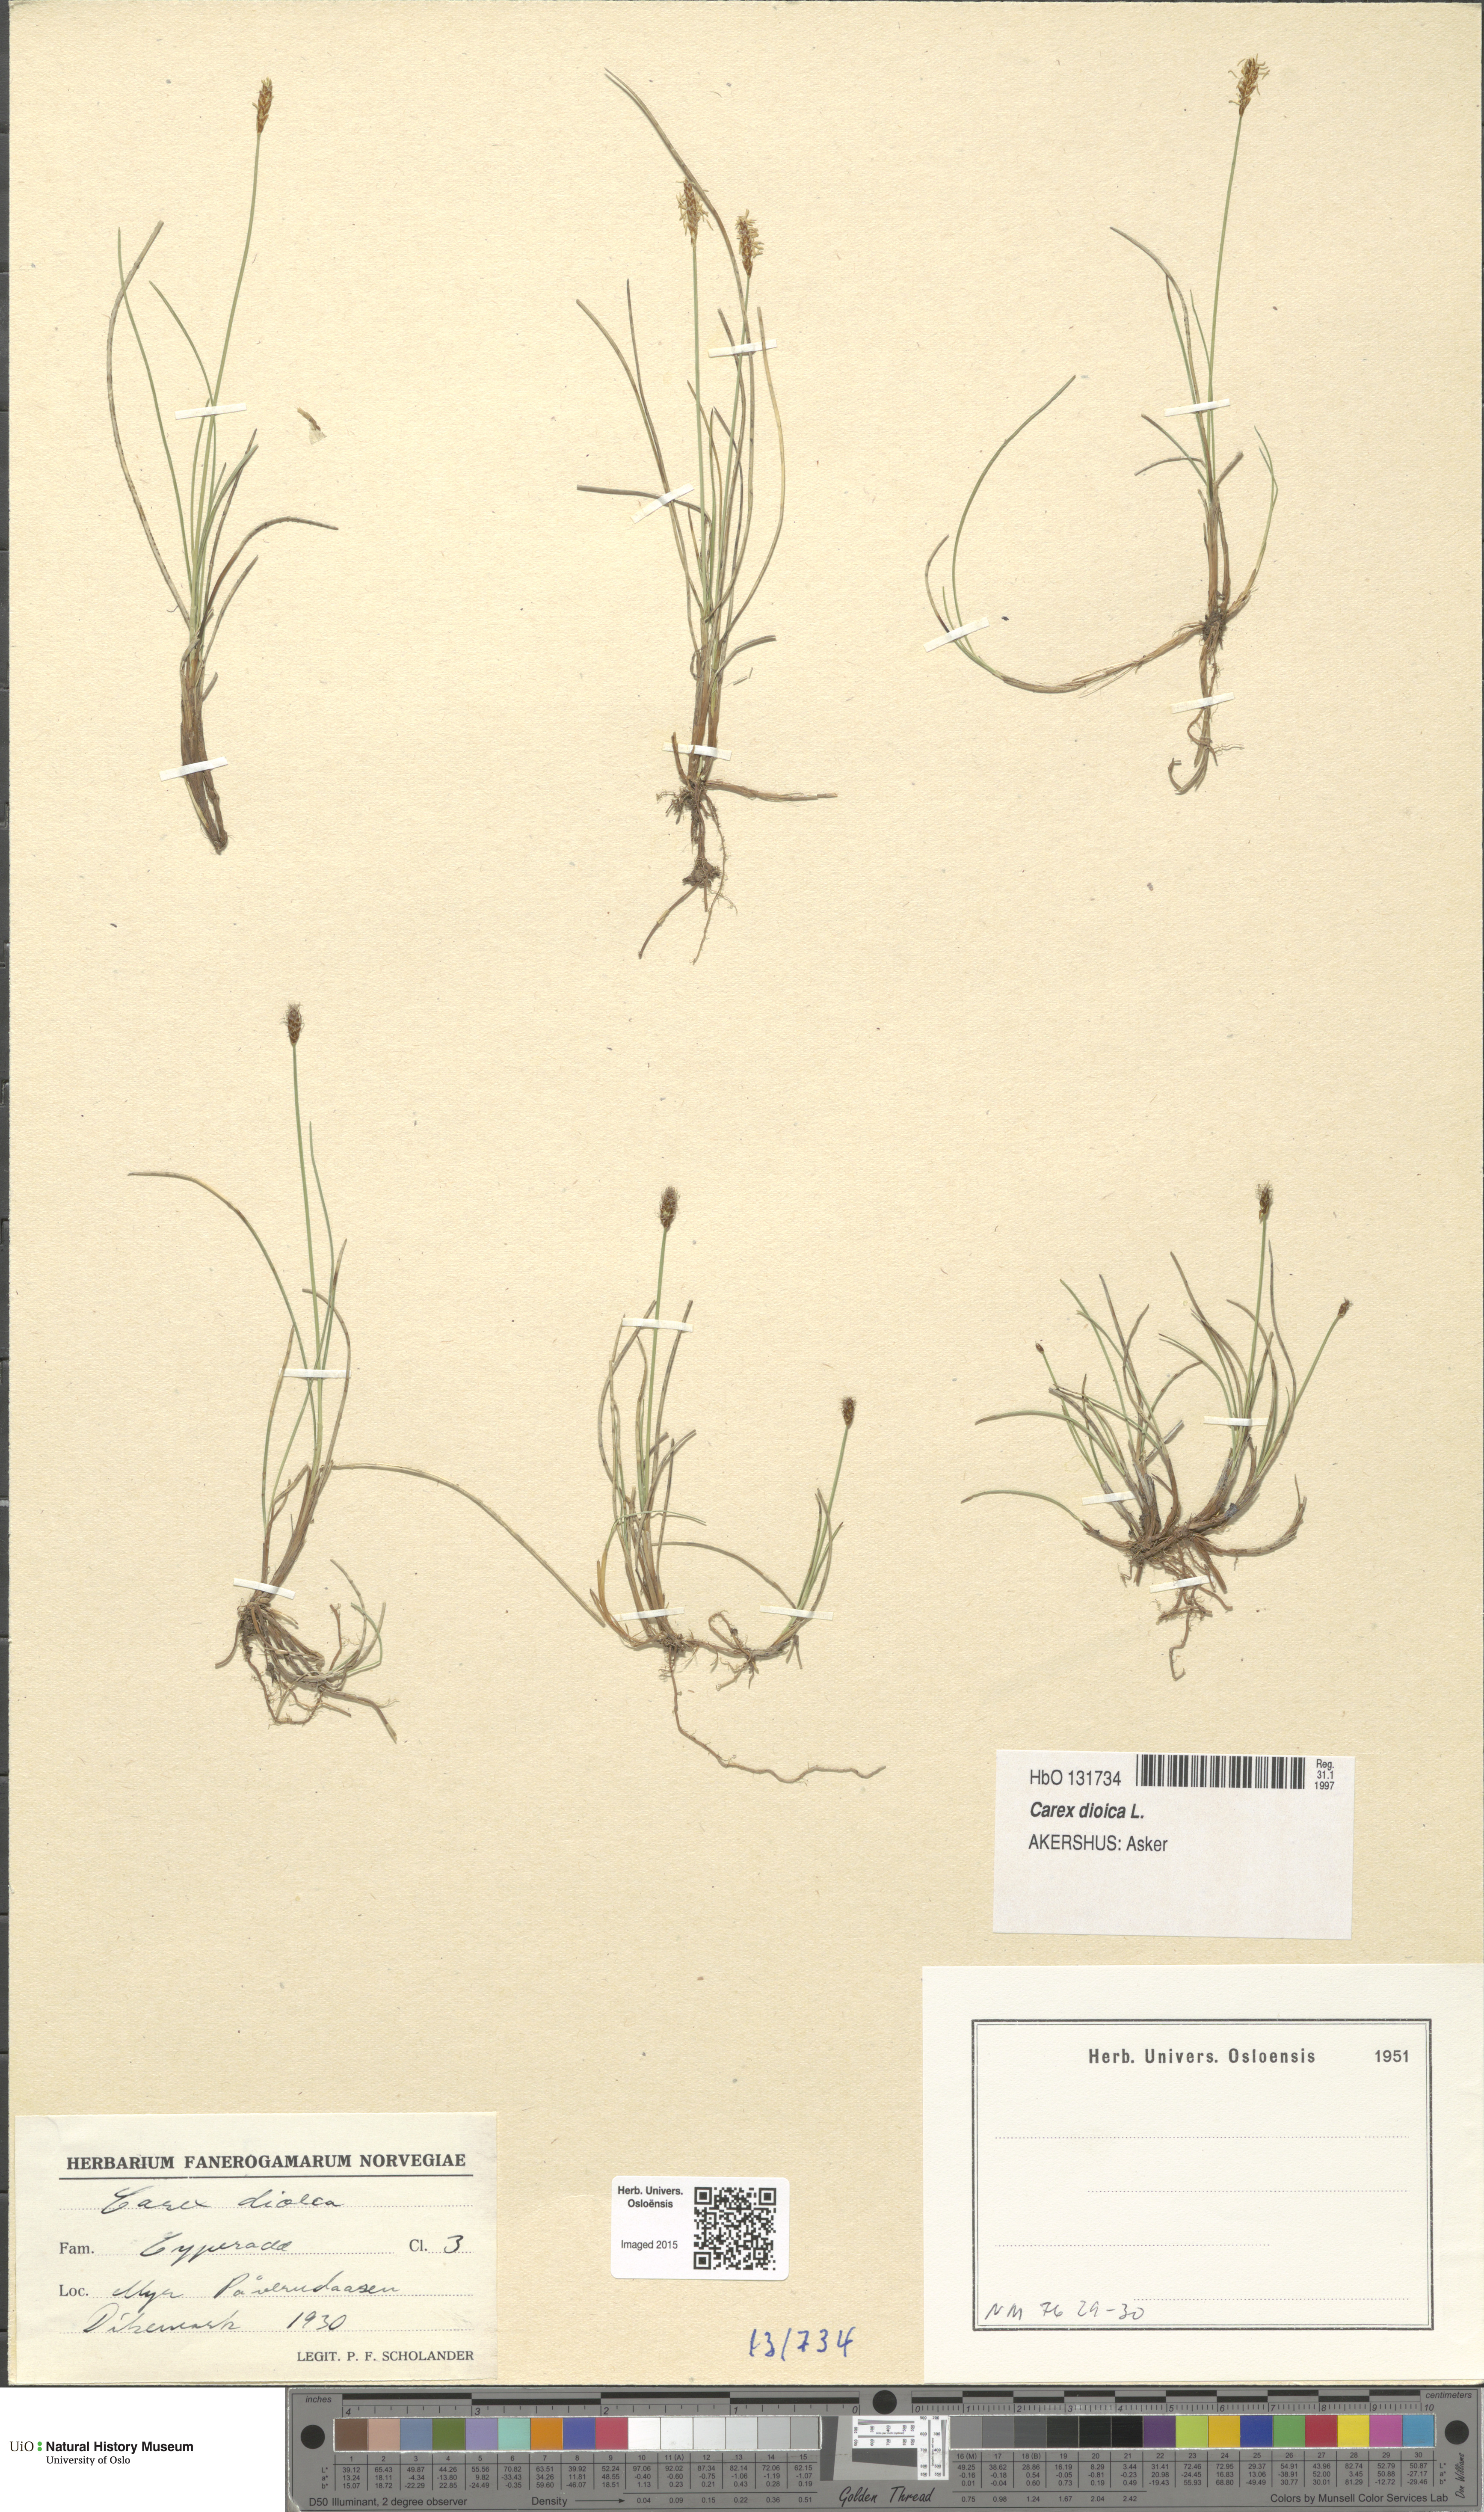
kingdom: Plantae
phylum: Tracheophyta
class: Liliopsida
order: Poales
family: Cyperaceae
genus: Carex
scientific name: Carex dioica
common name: Dioecious sedge
